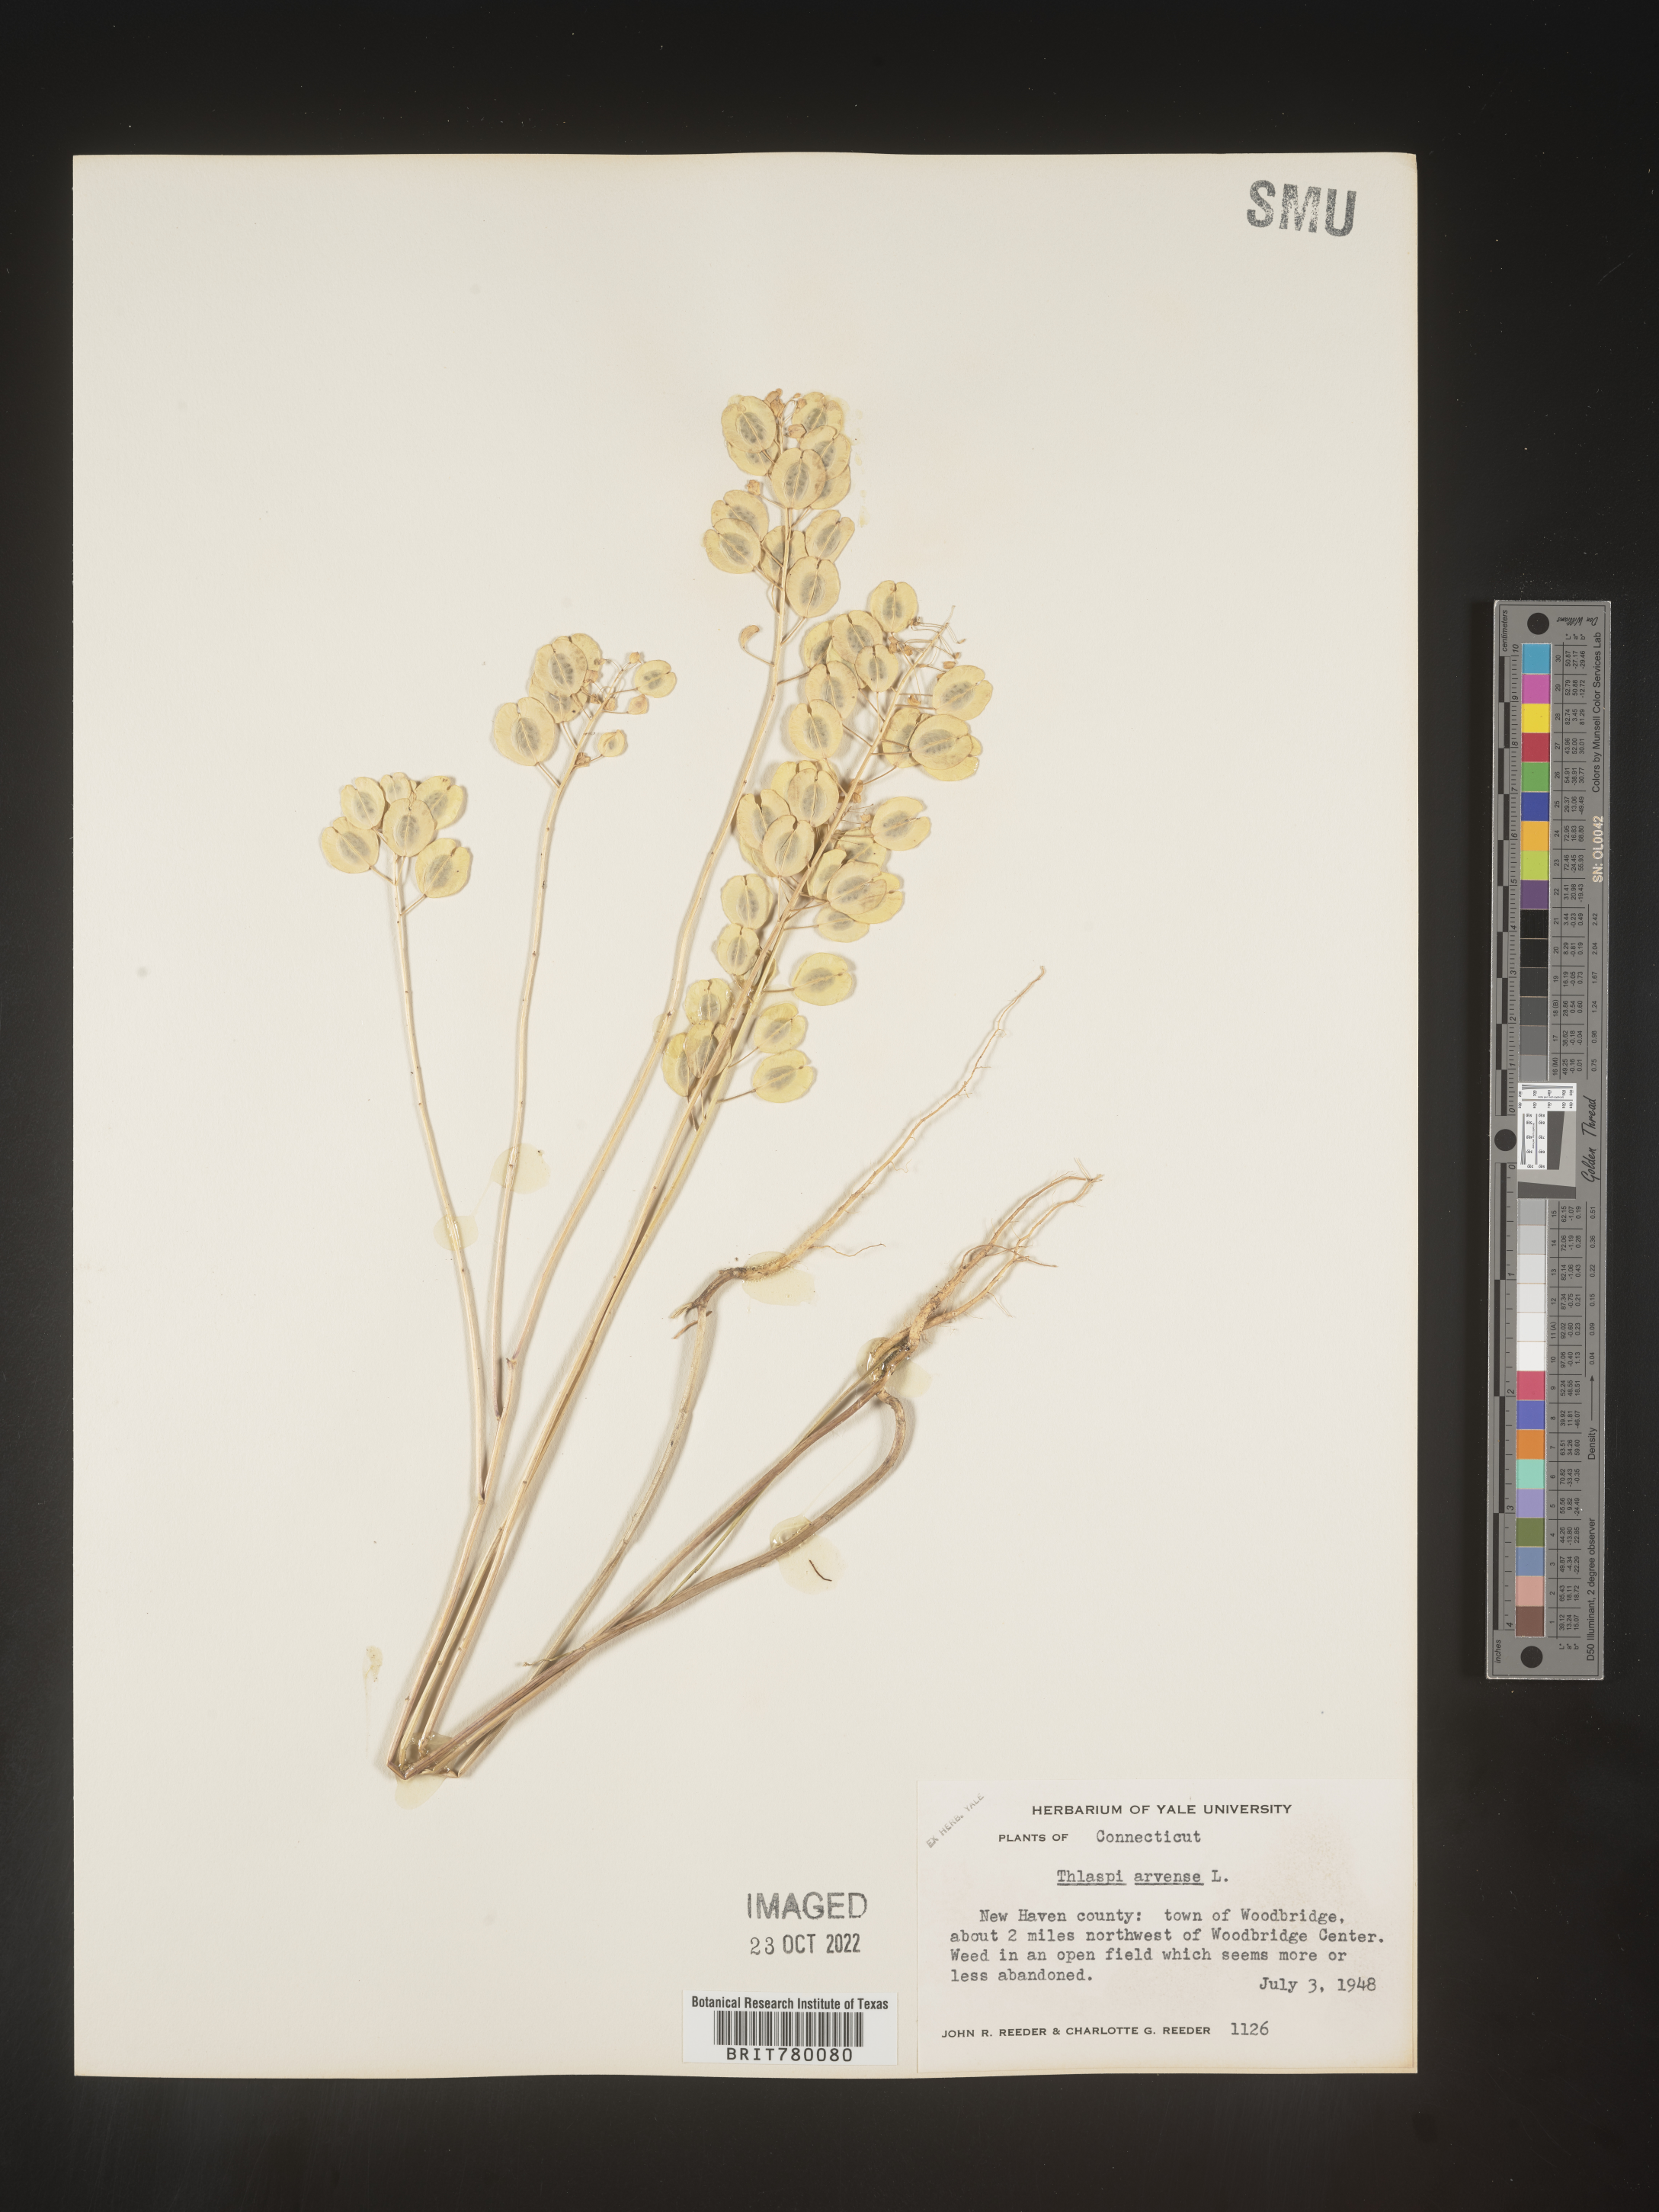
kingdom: Plantae
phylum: Tracheophyta
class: Magnoliopsida
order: Brassicales
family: Brassicaceae
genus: Thlaspi
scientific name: Thlaspi arvense
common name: Field pennycress
